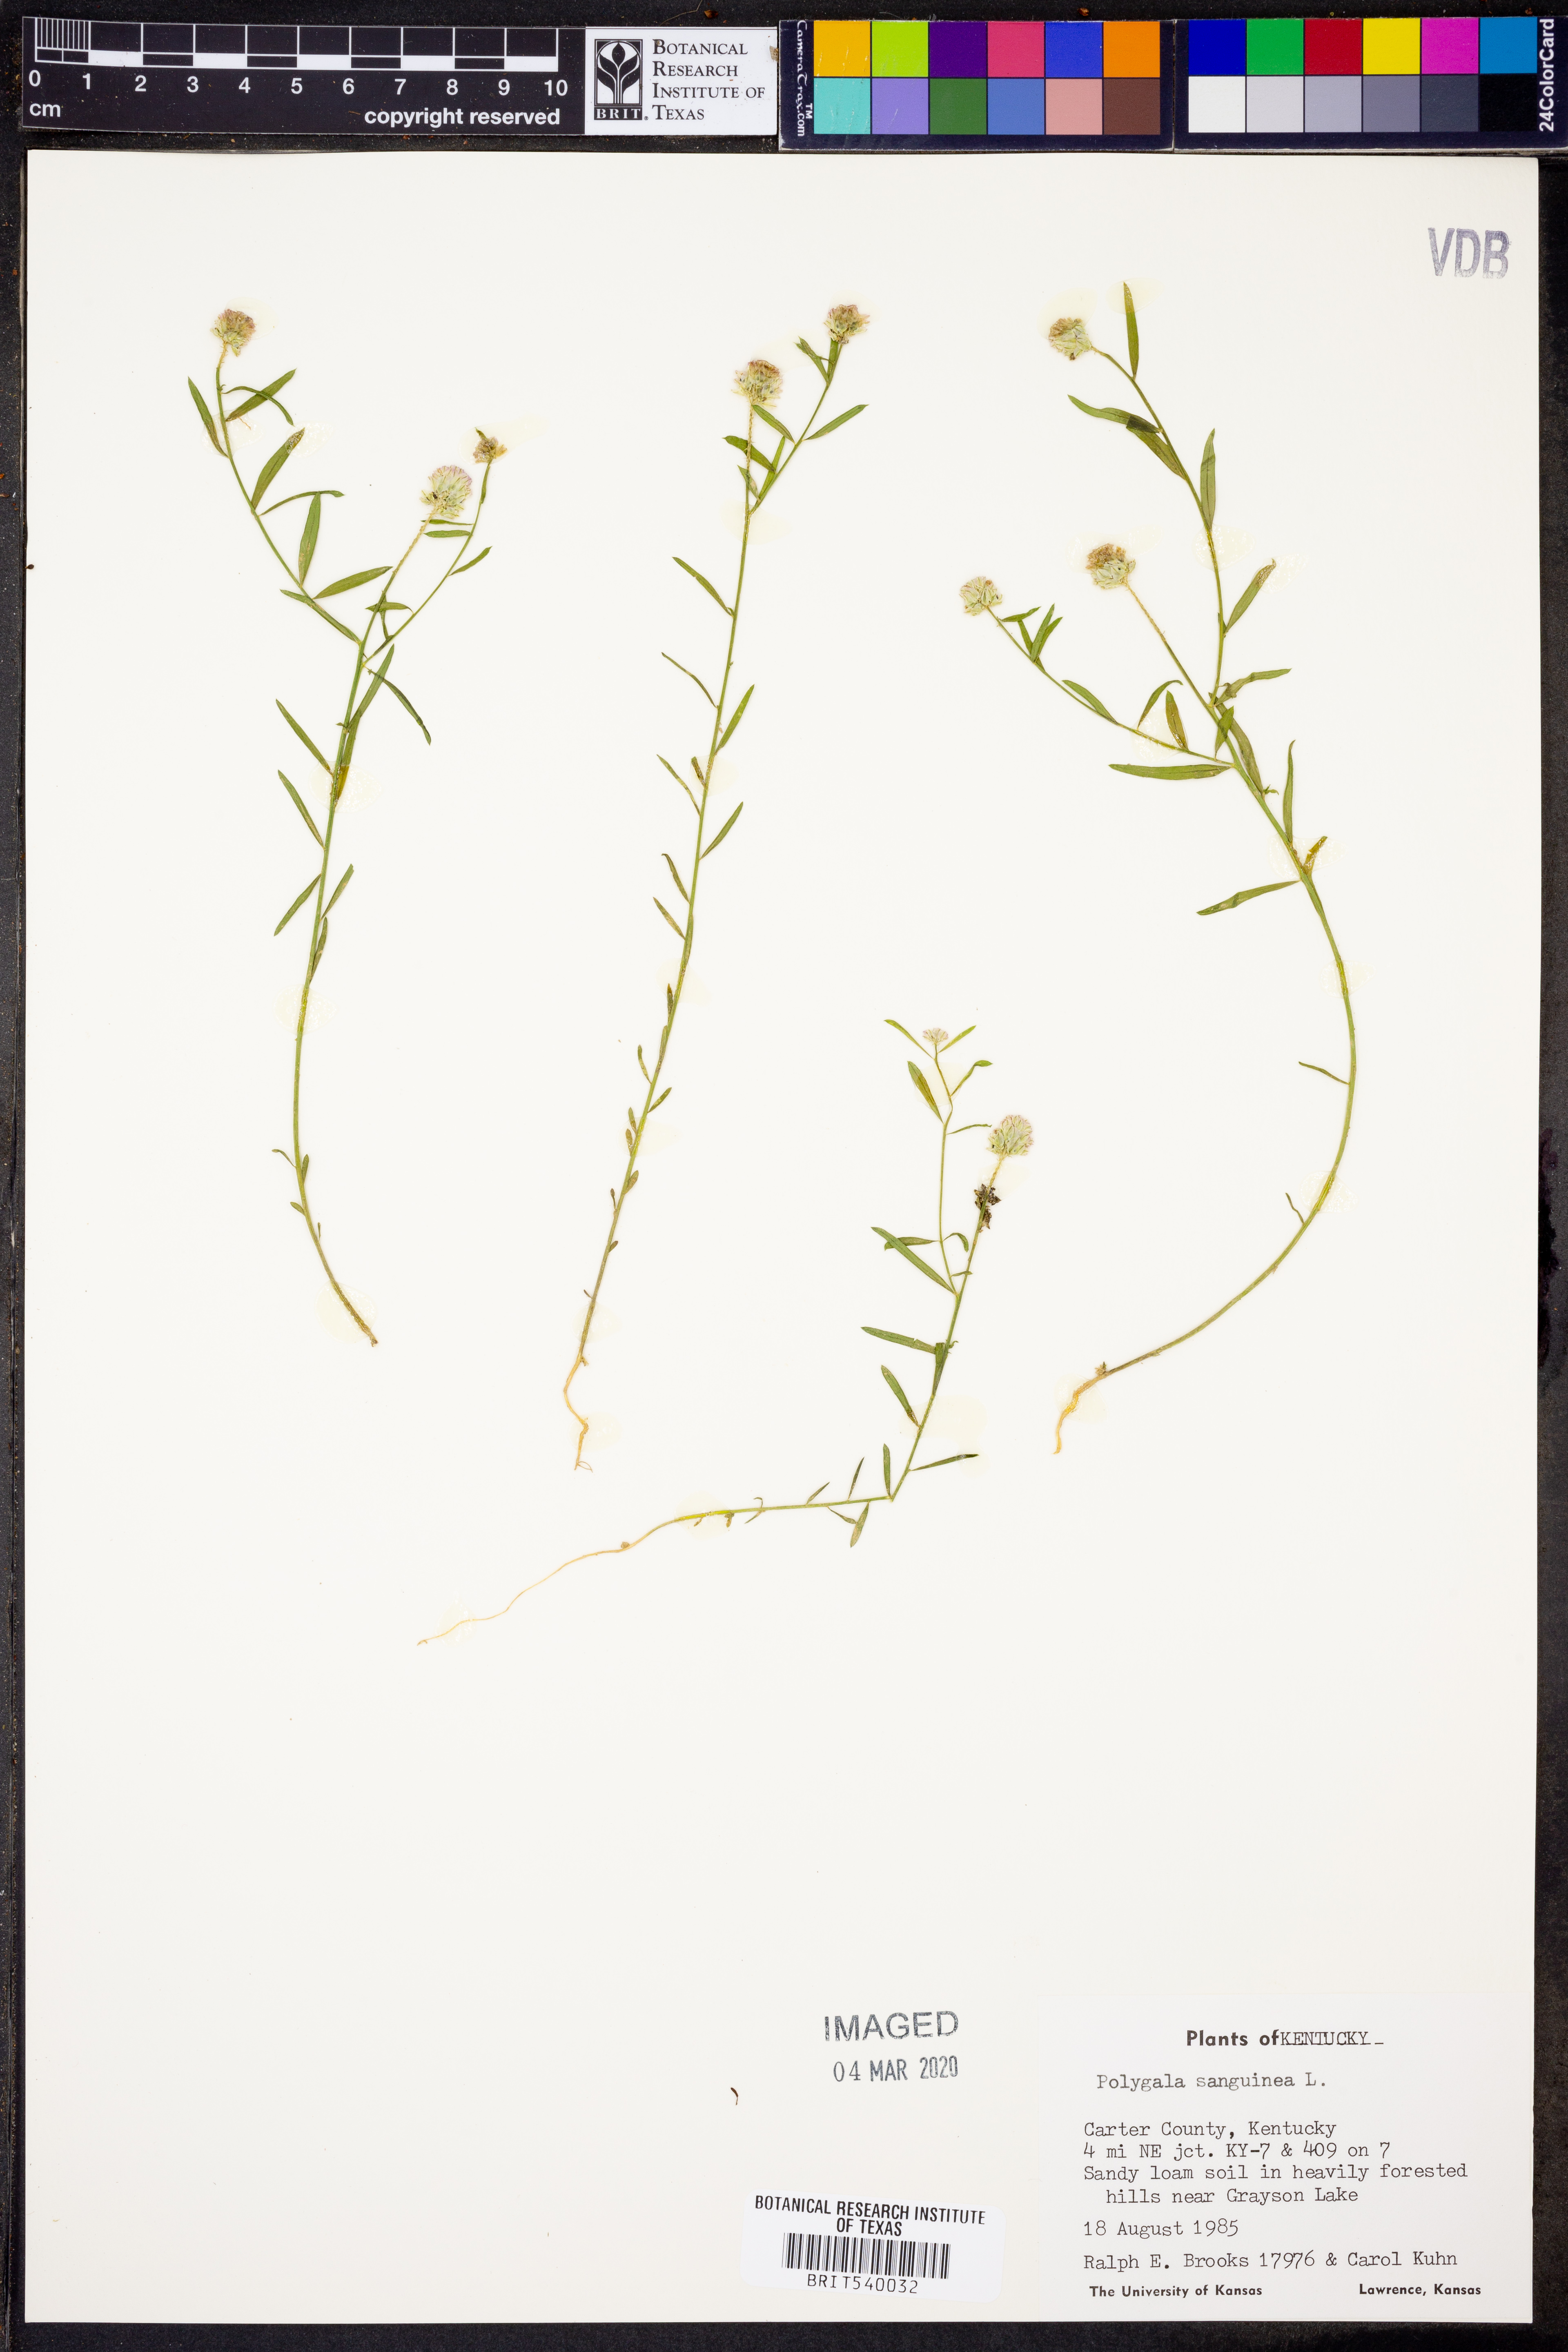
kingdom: Plantae
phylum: Tracheophyta
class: Magnoliopsida
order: Fabales
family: Polygalaceae
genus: Polygala
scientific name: Polygala sanguinea
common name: Blood milkwort
